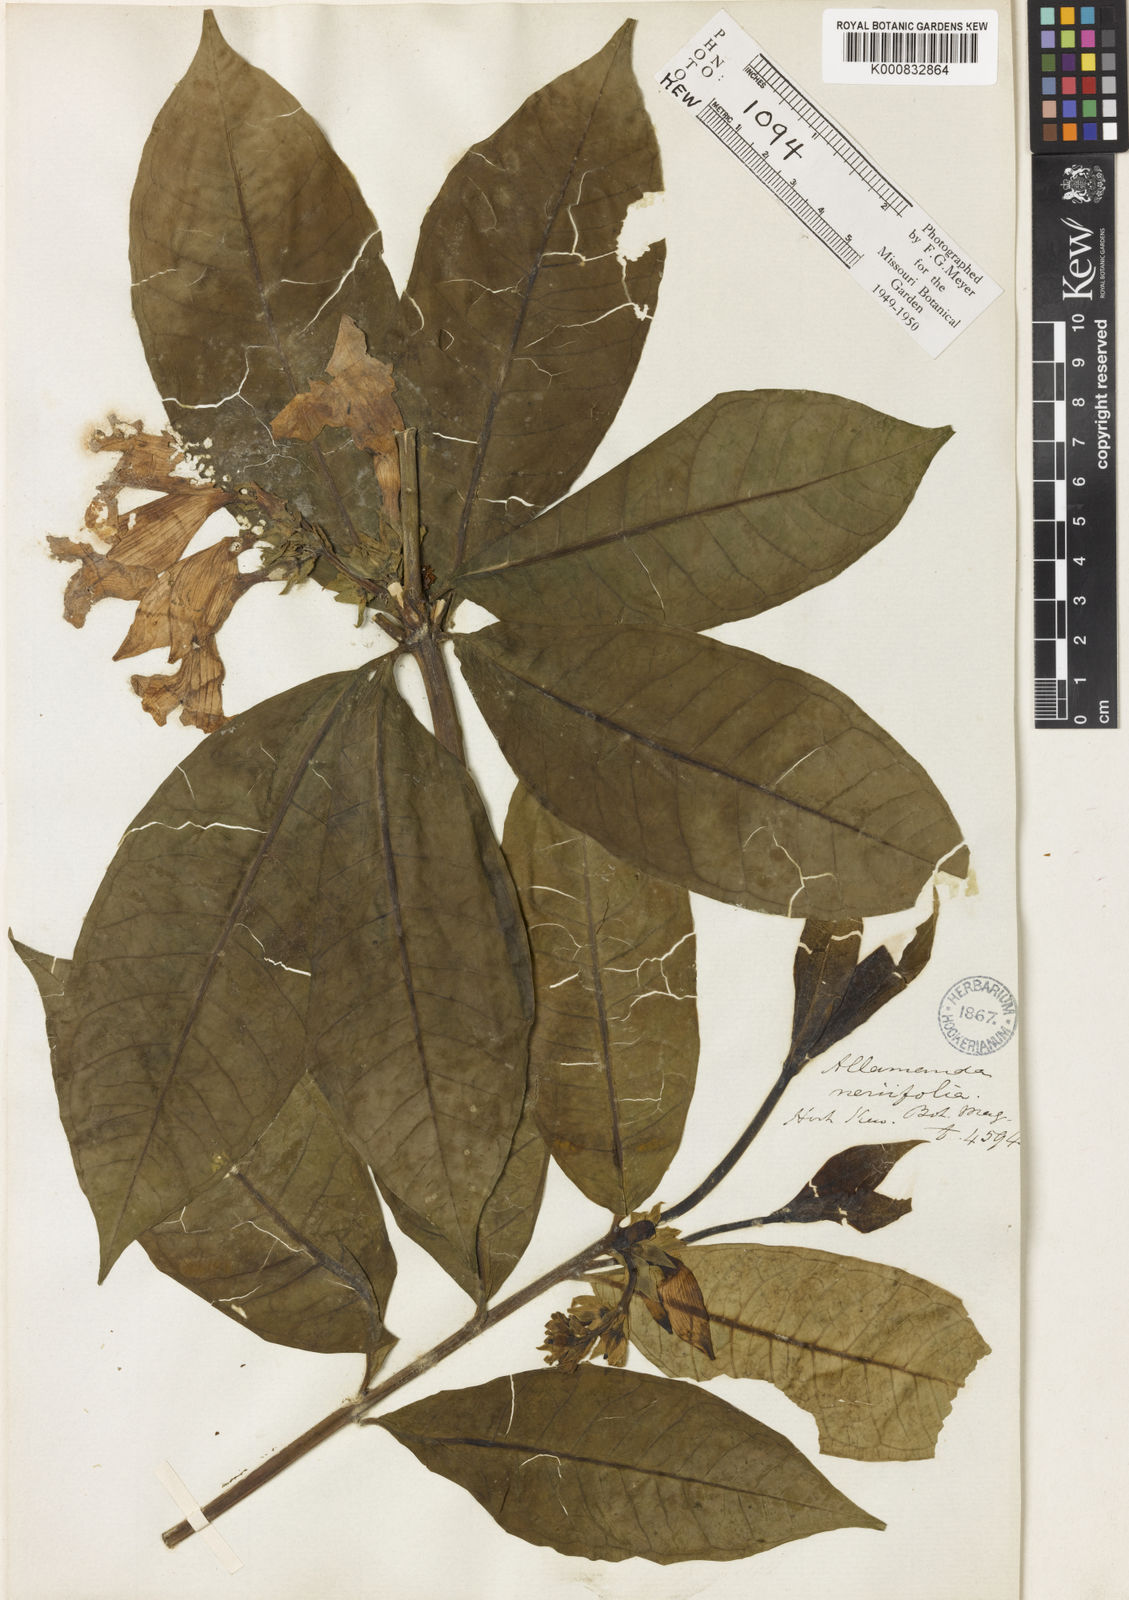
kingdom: Plantae
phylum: Tracheophyta
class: Magnoliopsida
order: Gentianales
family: Apocynaceae
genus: Allamanda
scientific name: Allamanda schottii
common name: Bush allamanda
